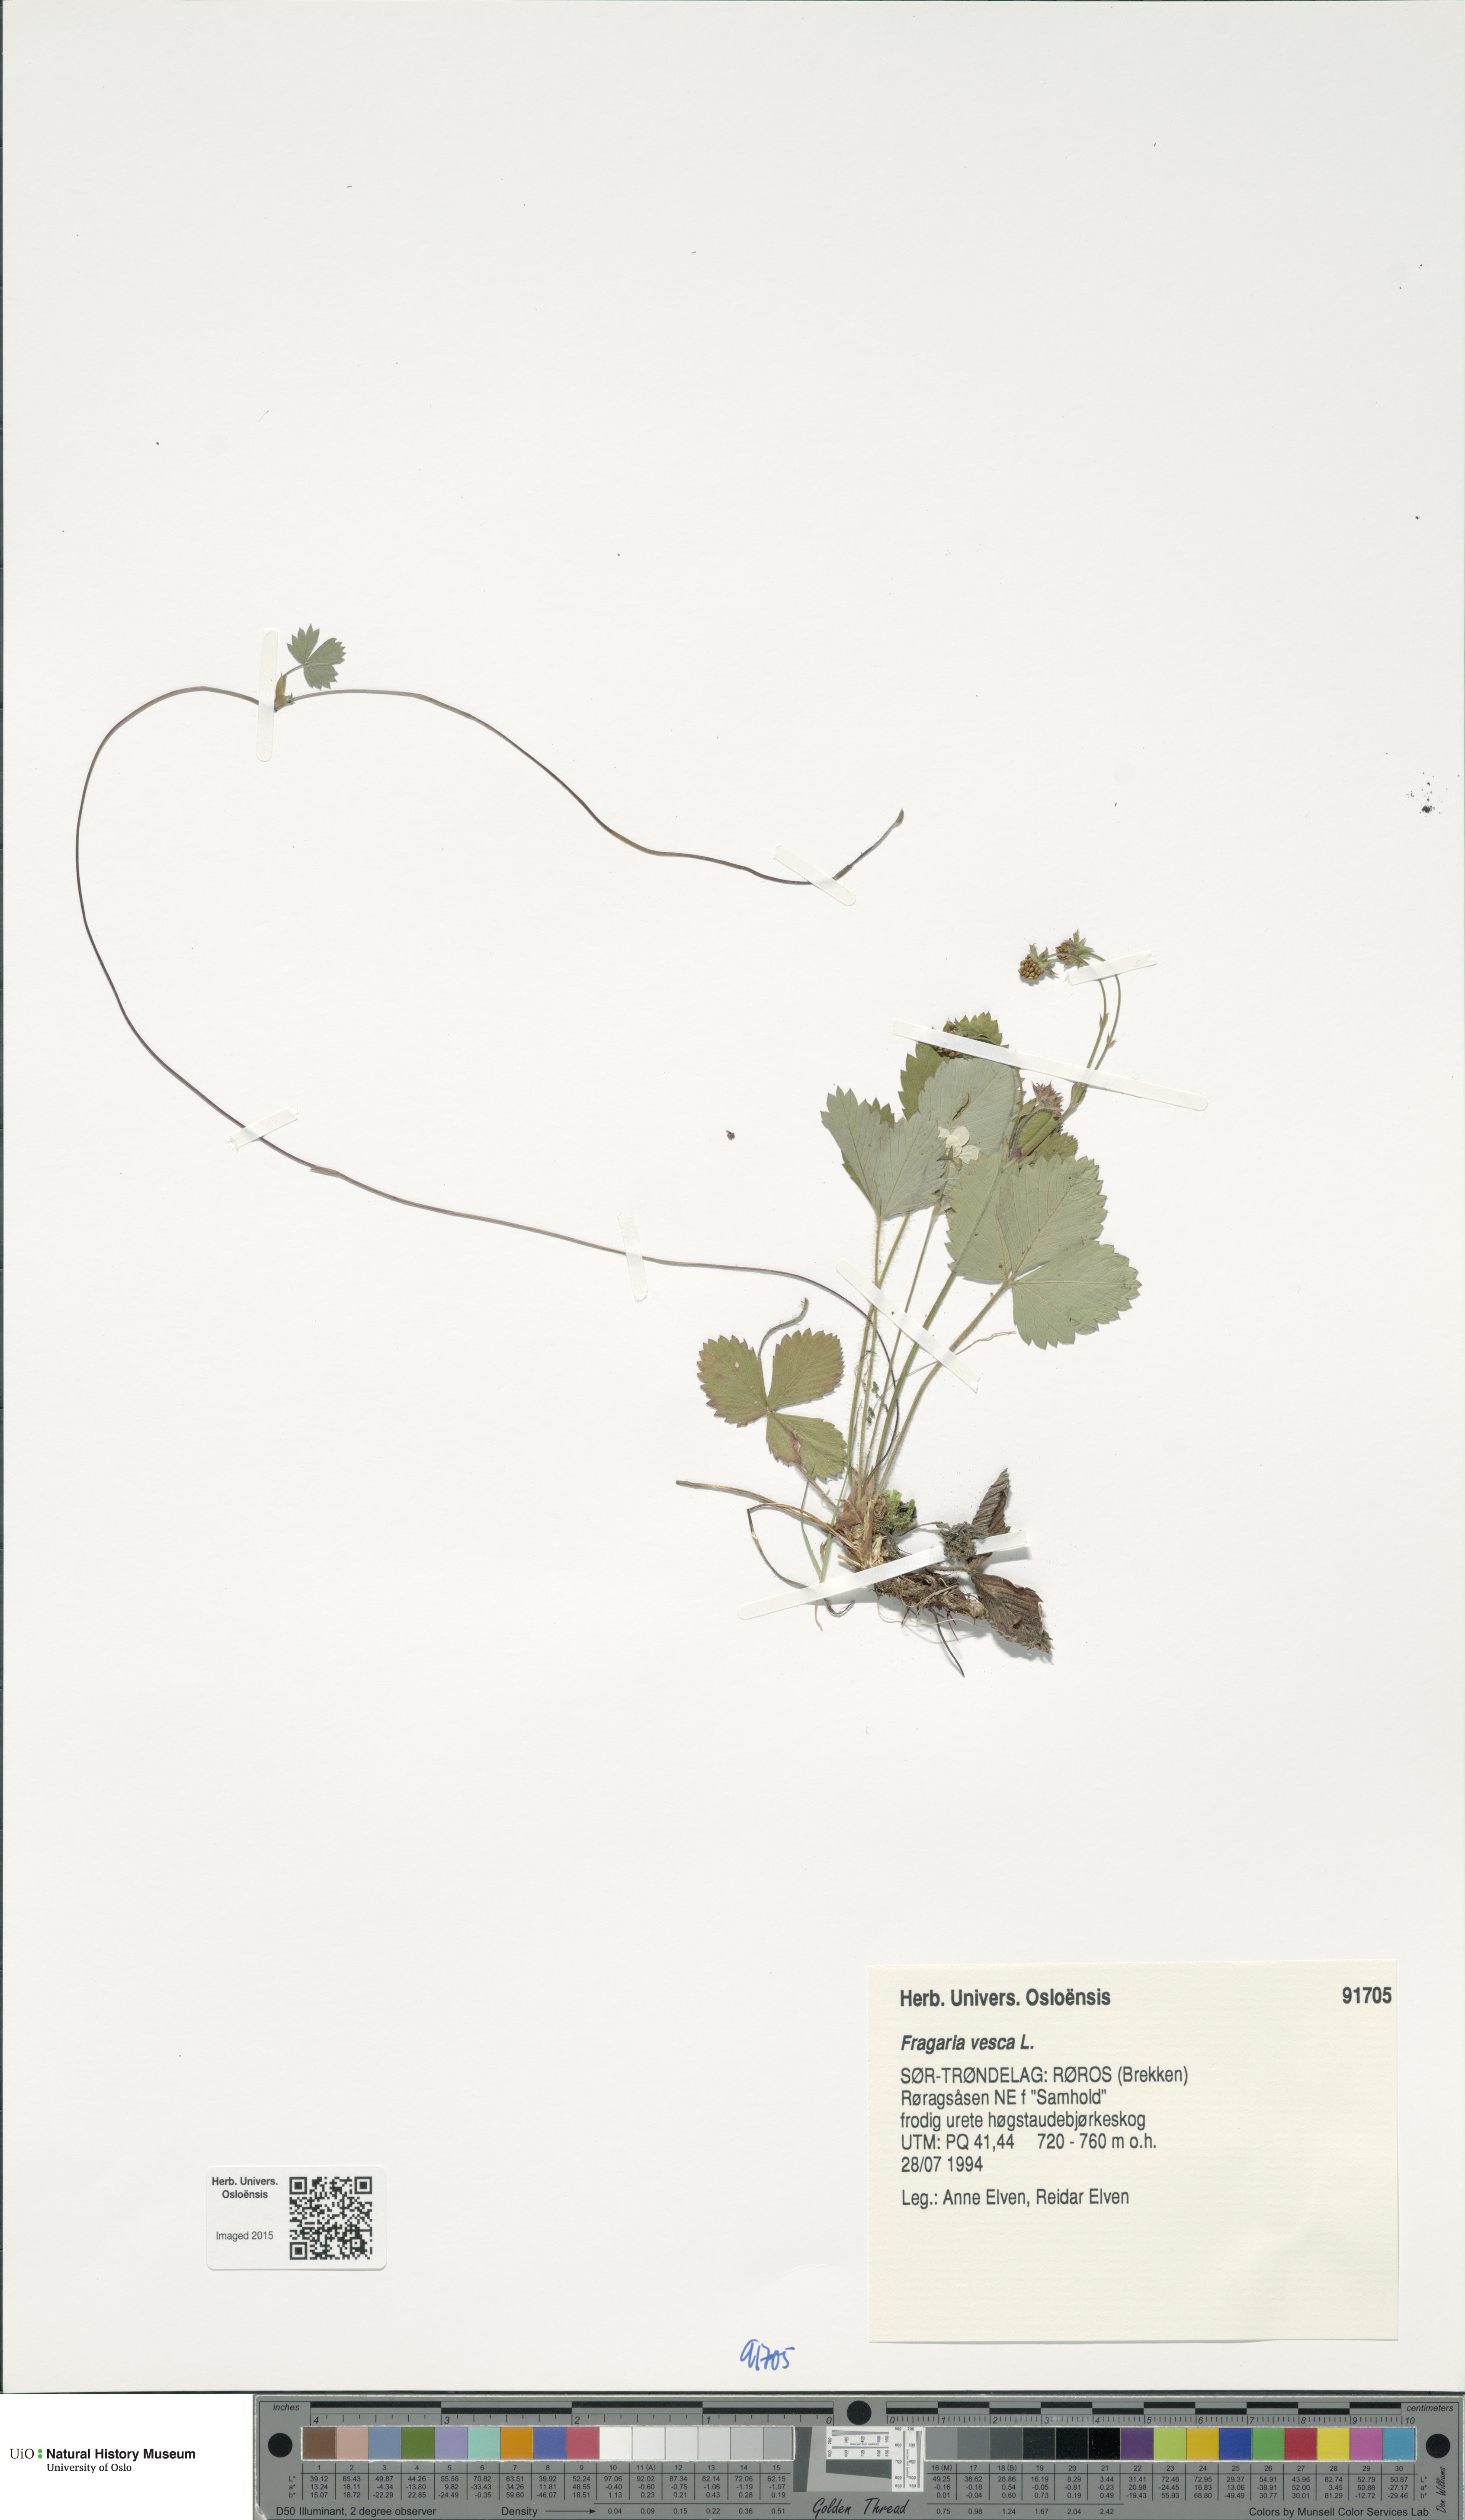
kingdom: Plantae
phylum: Tracheophyta
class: Magnoliopsida
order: Rosales
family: Rosaceae
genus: Fragaria
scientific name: Fragaria vesca
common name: Wild strawberry
